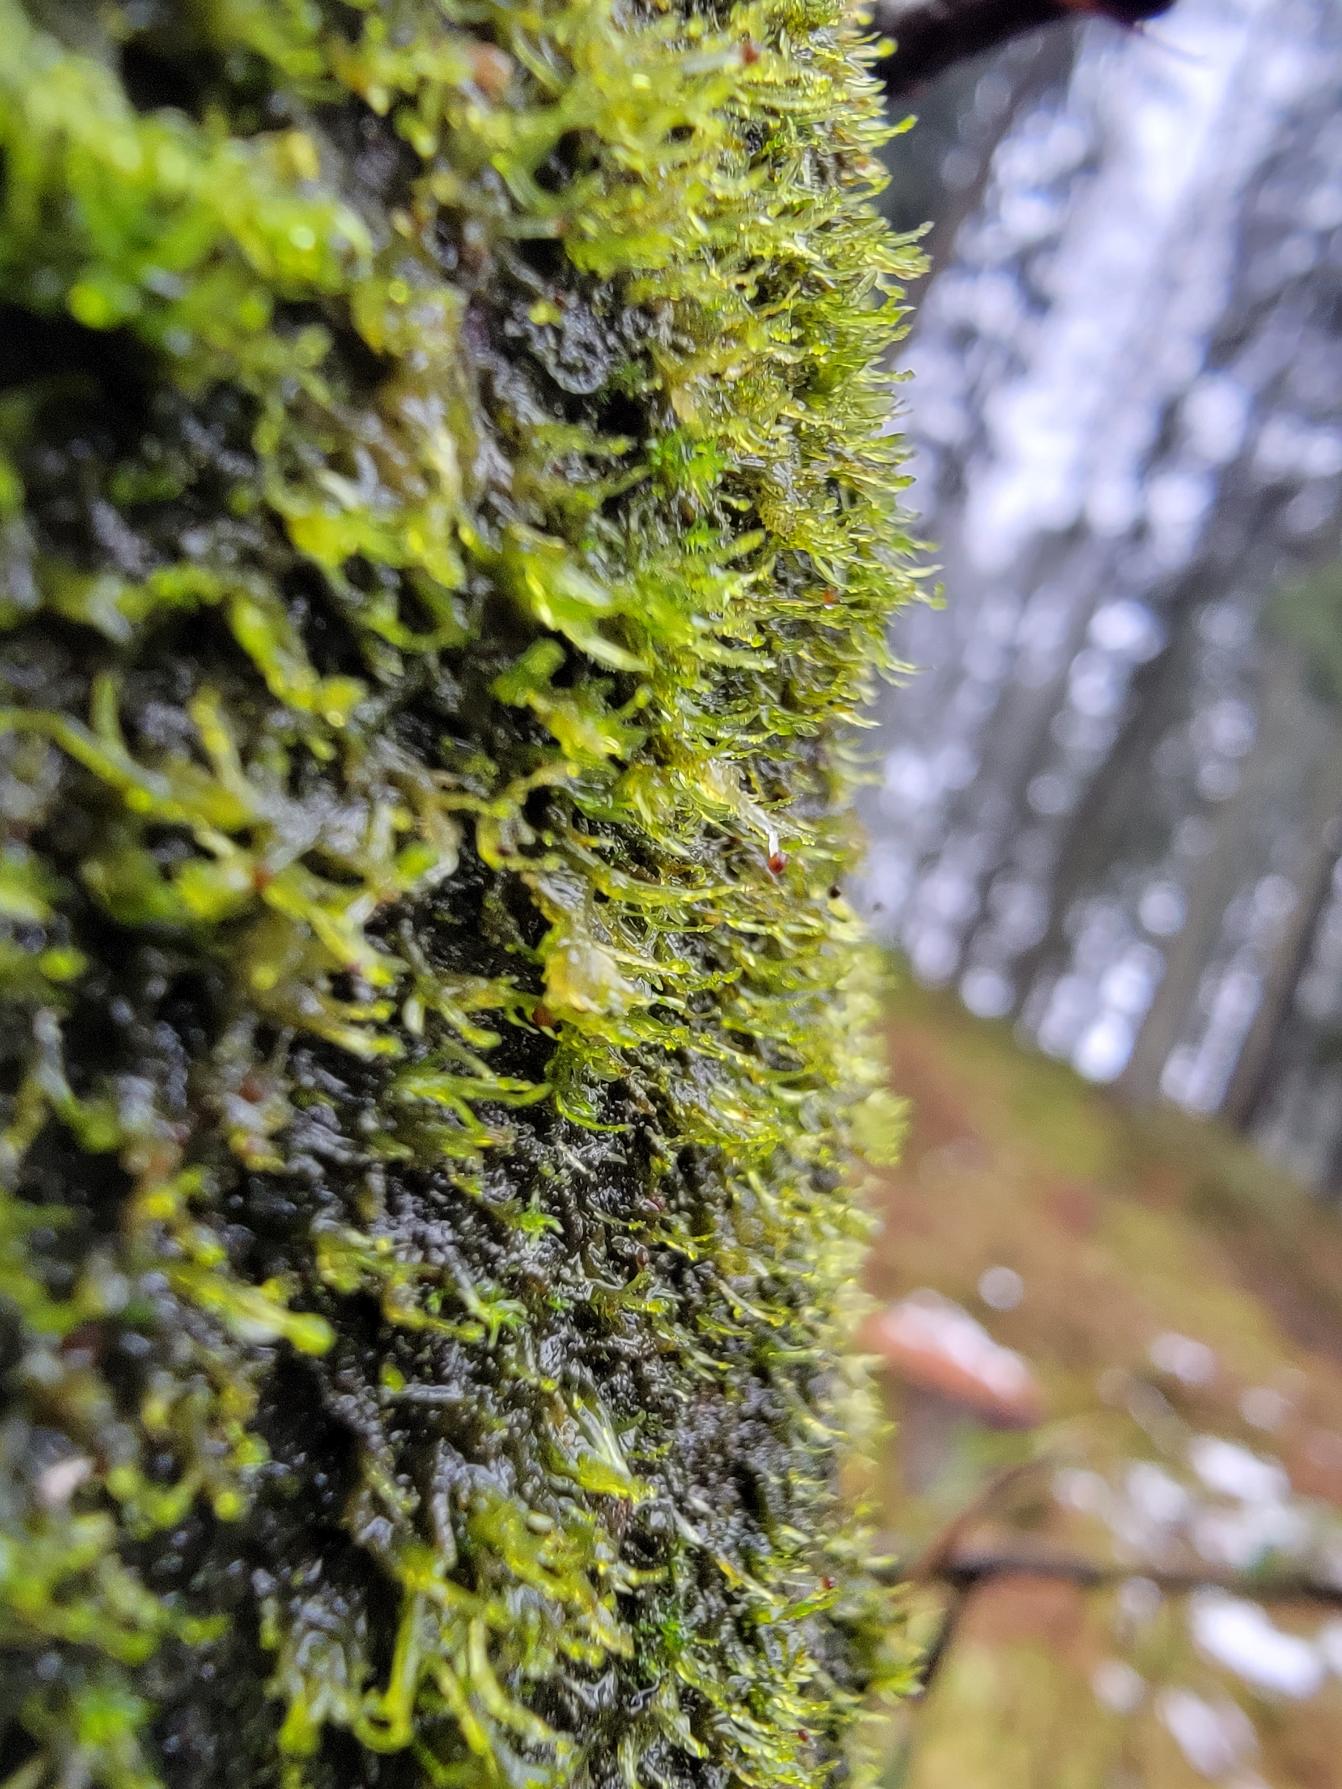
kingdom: Plantae
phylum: Marchantiophyta
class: Jungermanniopsida
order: Metzgeriales
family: Aneuraceae
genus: Riccardia
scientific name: Riccardia palmata
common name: Blågrøn gaffelløv
